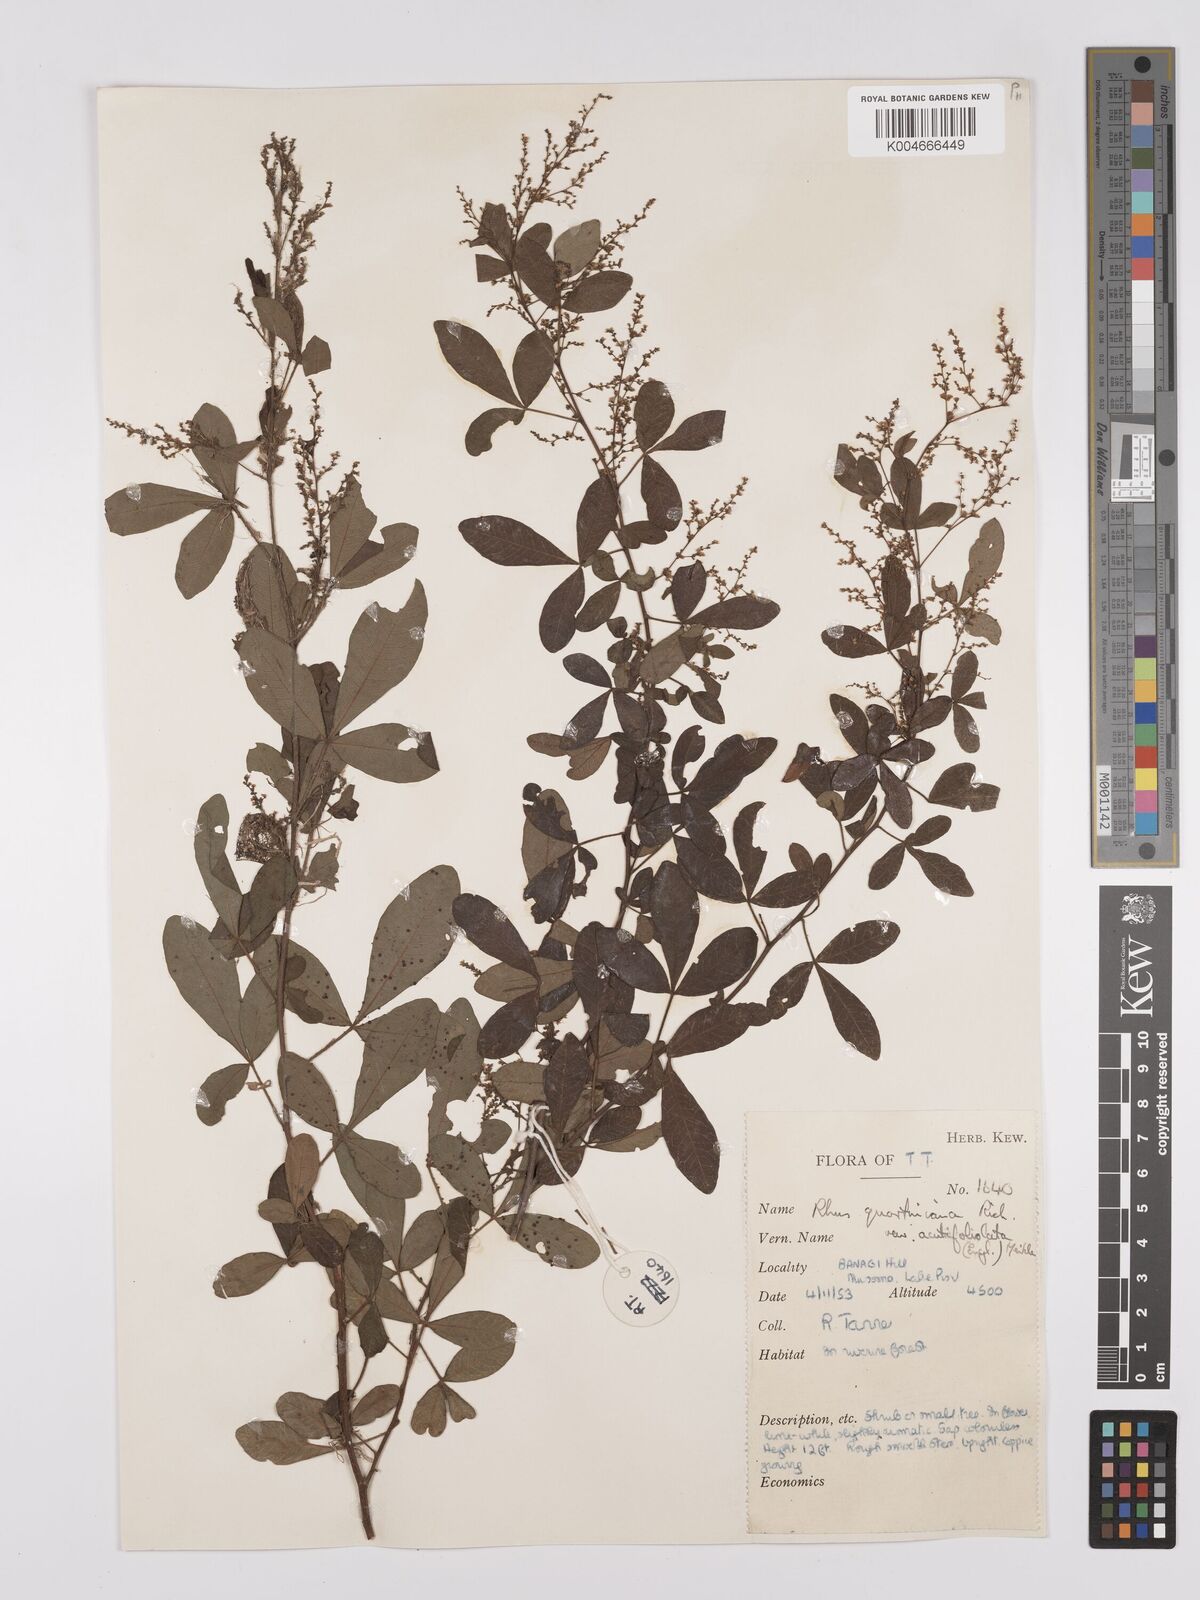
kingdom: Plantae
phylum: Tracheophyta
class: Magnoliopsida
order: Sapindales
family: Anacardiaceae
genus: Searsia
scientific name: Searsia quartiniana
